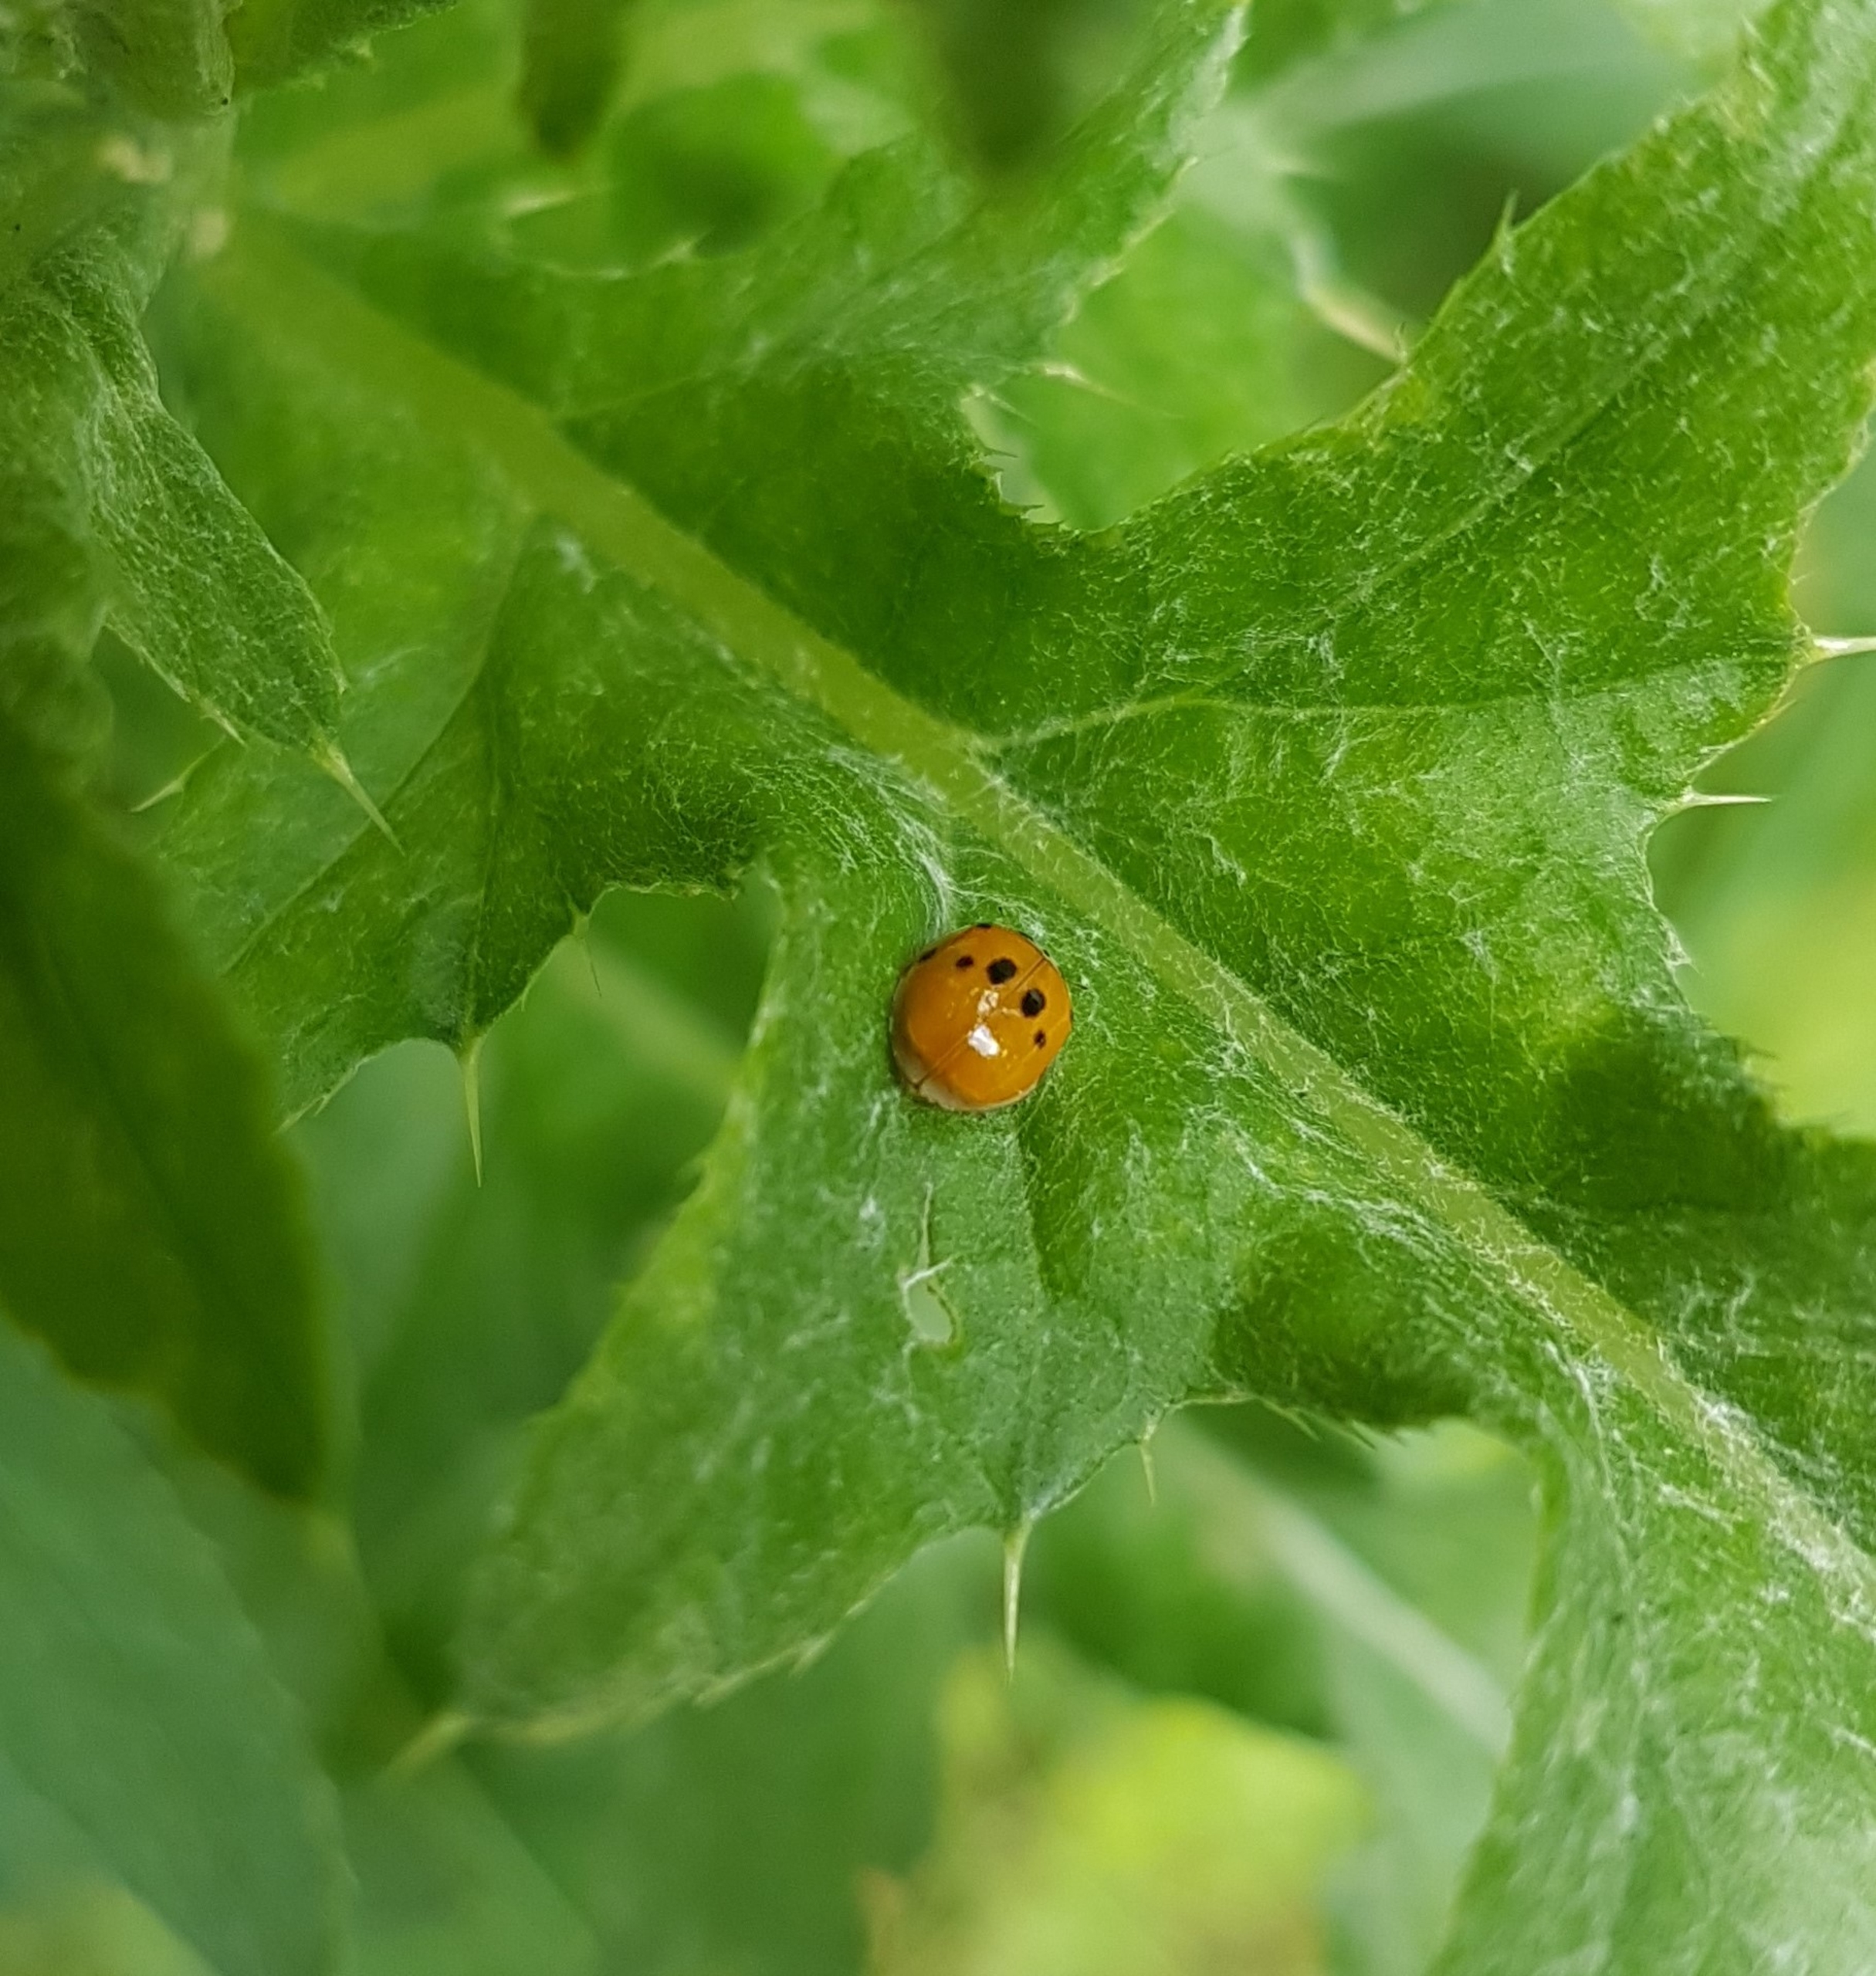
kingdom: Animalia
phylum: Arthropoda
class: Insecta
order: Coleoptera
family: Coccinellidae
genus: Adalia
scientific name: Adalia decempunctata
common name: Tiplettet mariehøne
